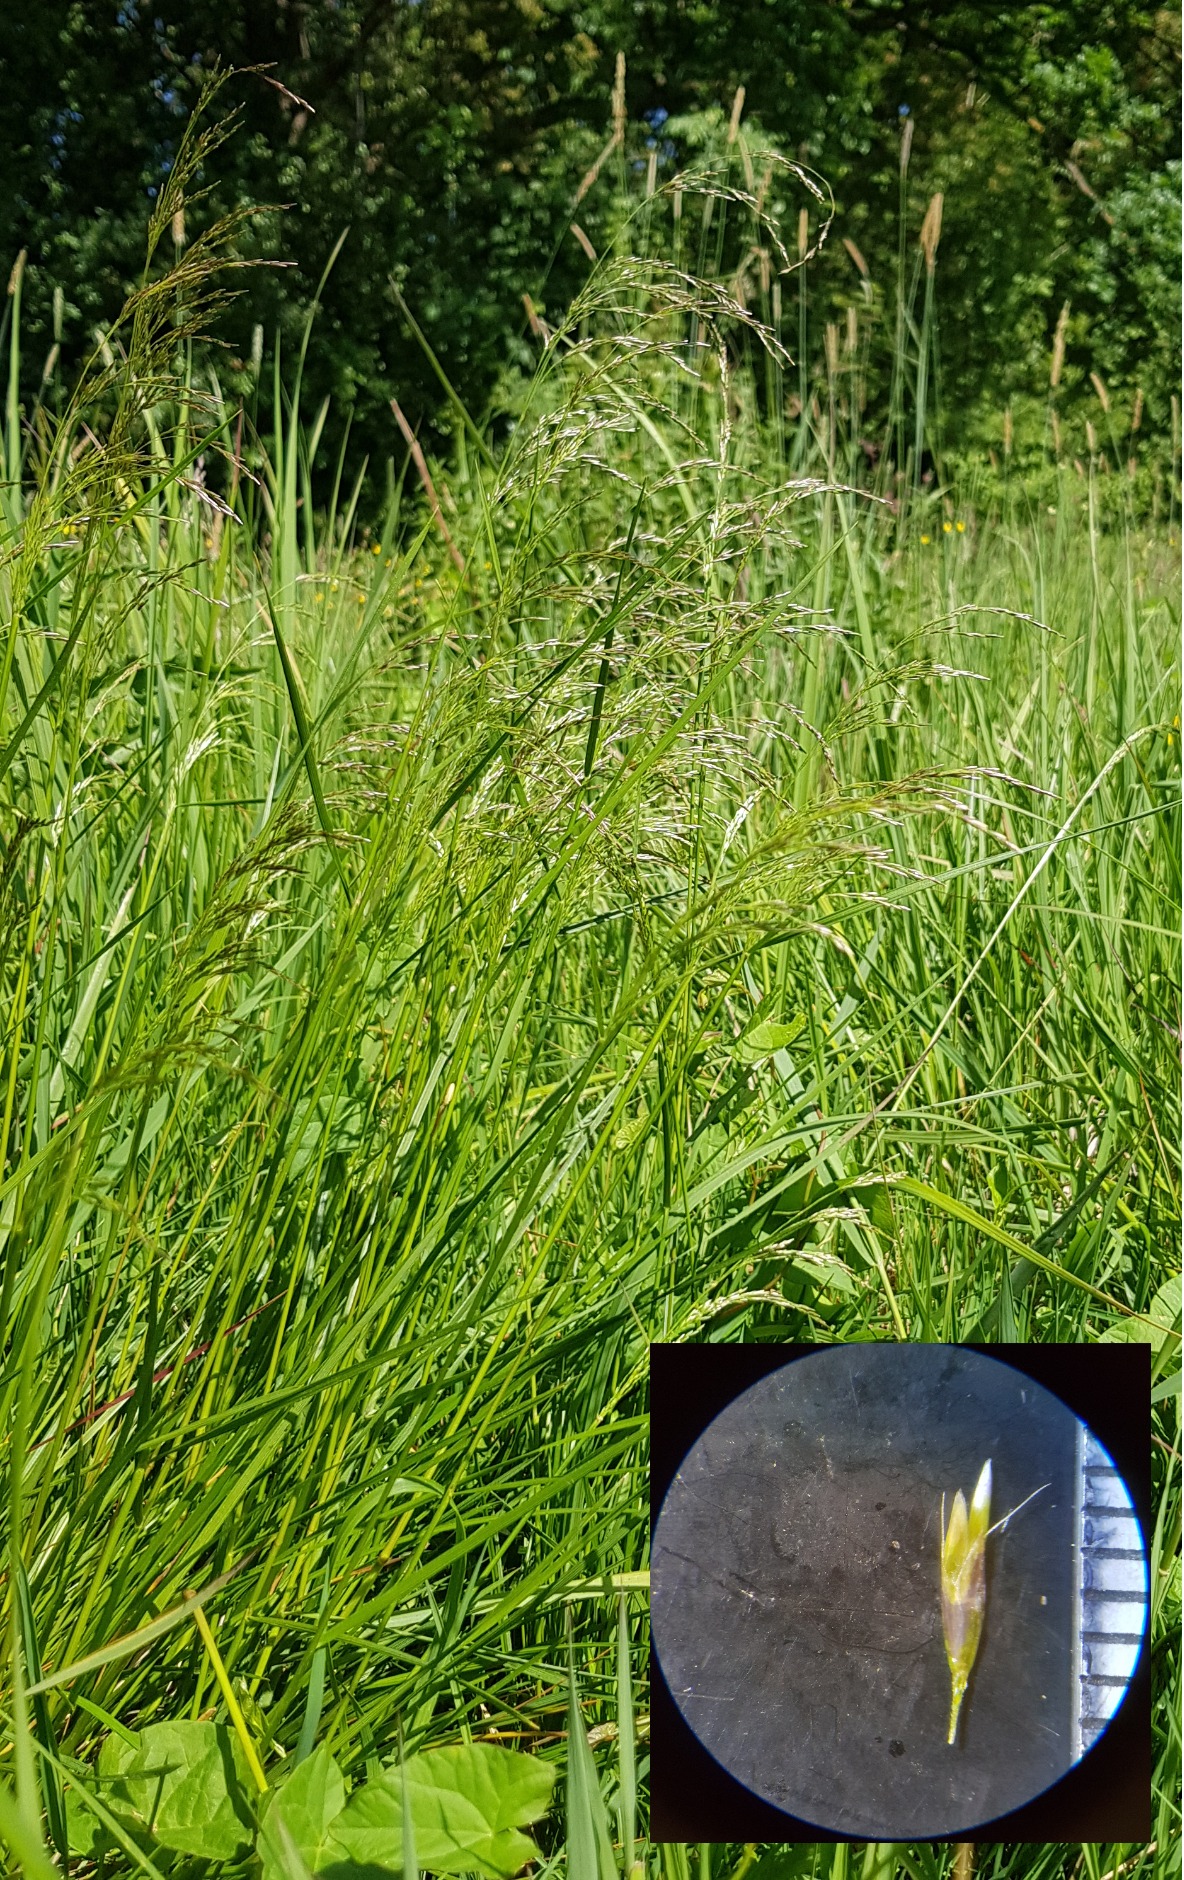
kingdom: Plantae
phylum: Tracheophyta
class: Liliopsida
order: Poales
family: Poaceae
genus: Deschampsia
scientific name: Deschampsia cespitosa
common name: Mose-bunke
